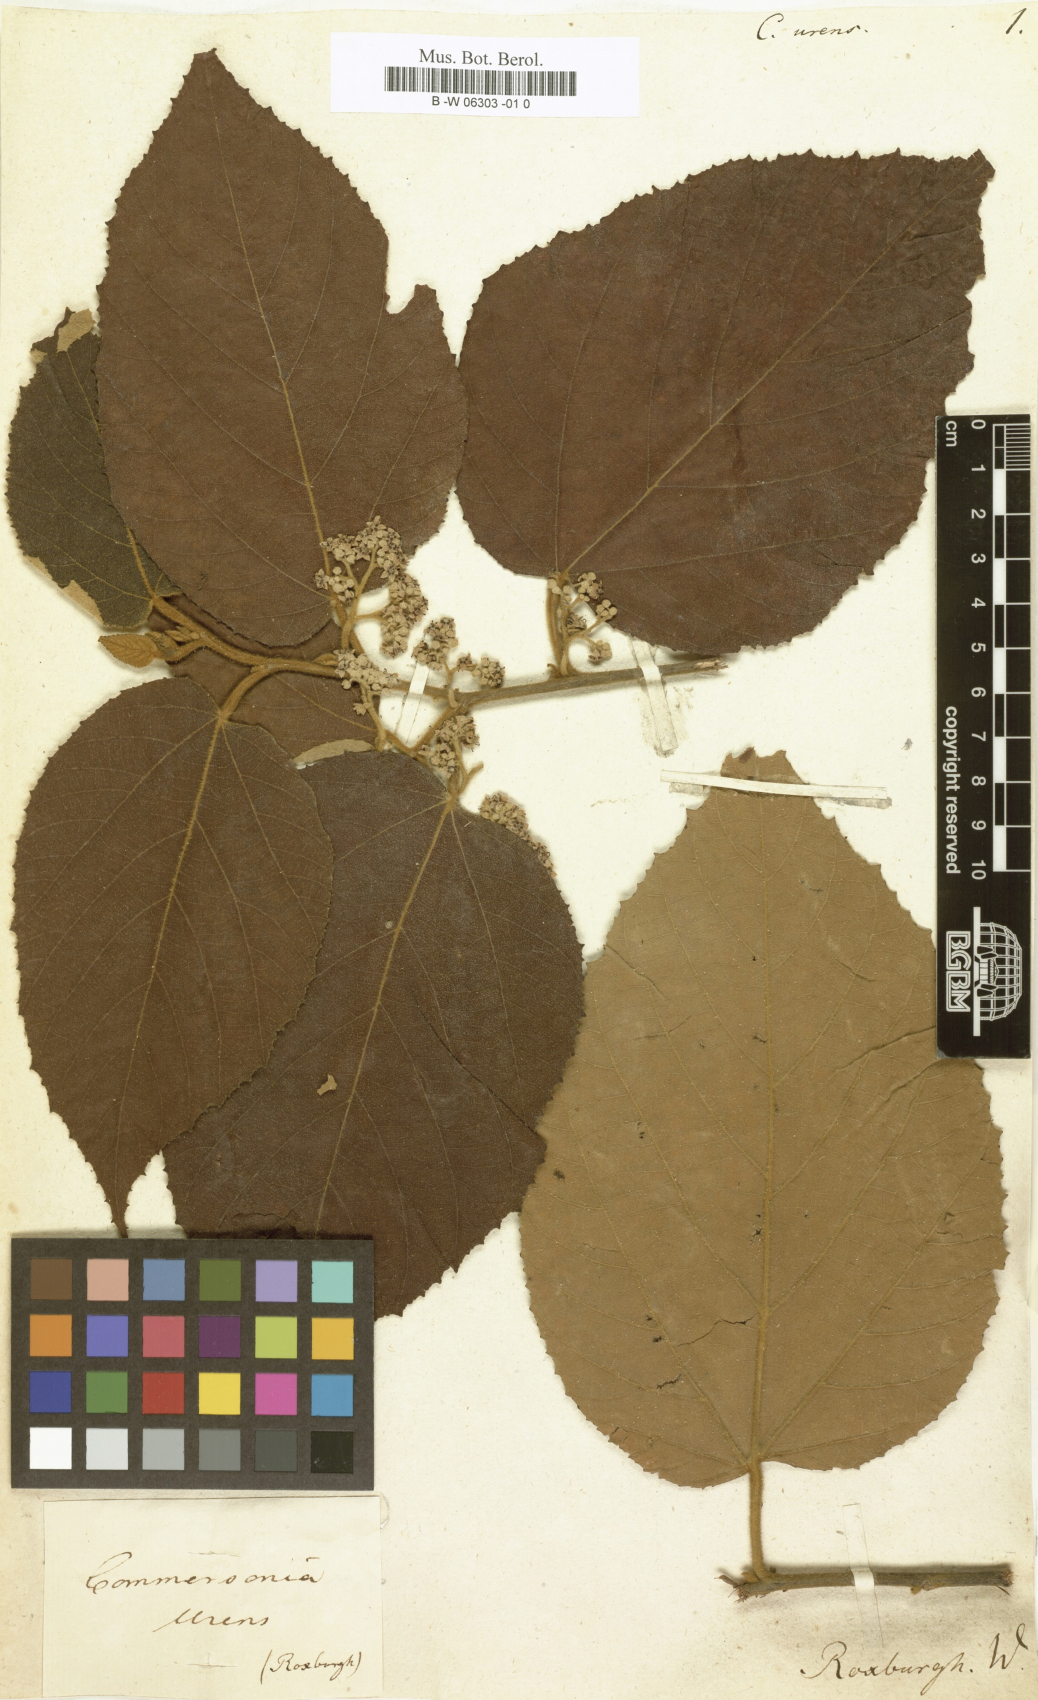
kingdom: Plantae
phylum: Tracheophyta
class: Magnoliopsida
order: Malvales
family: Malvaceae
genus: Commersonia
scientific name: Commersonia
